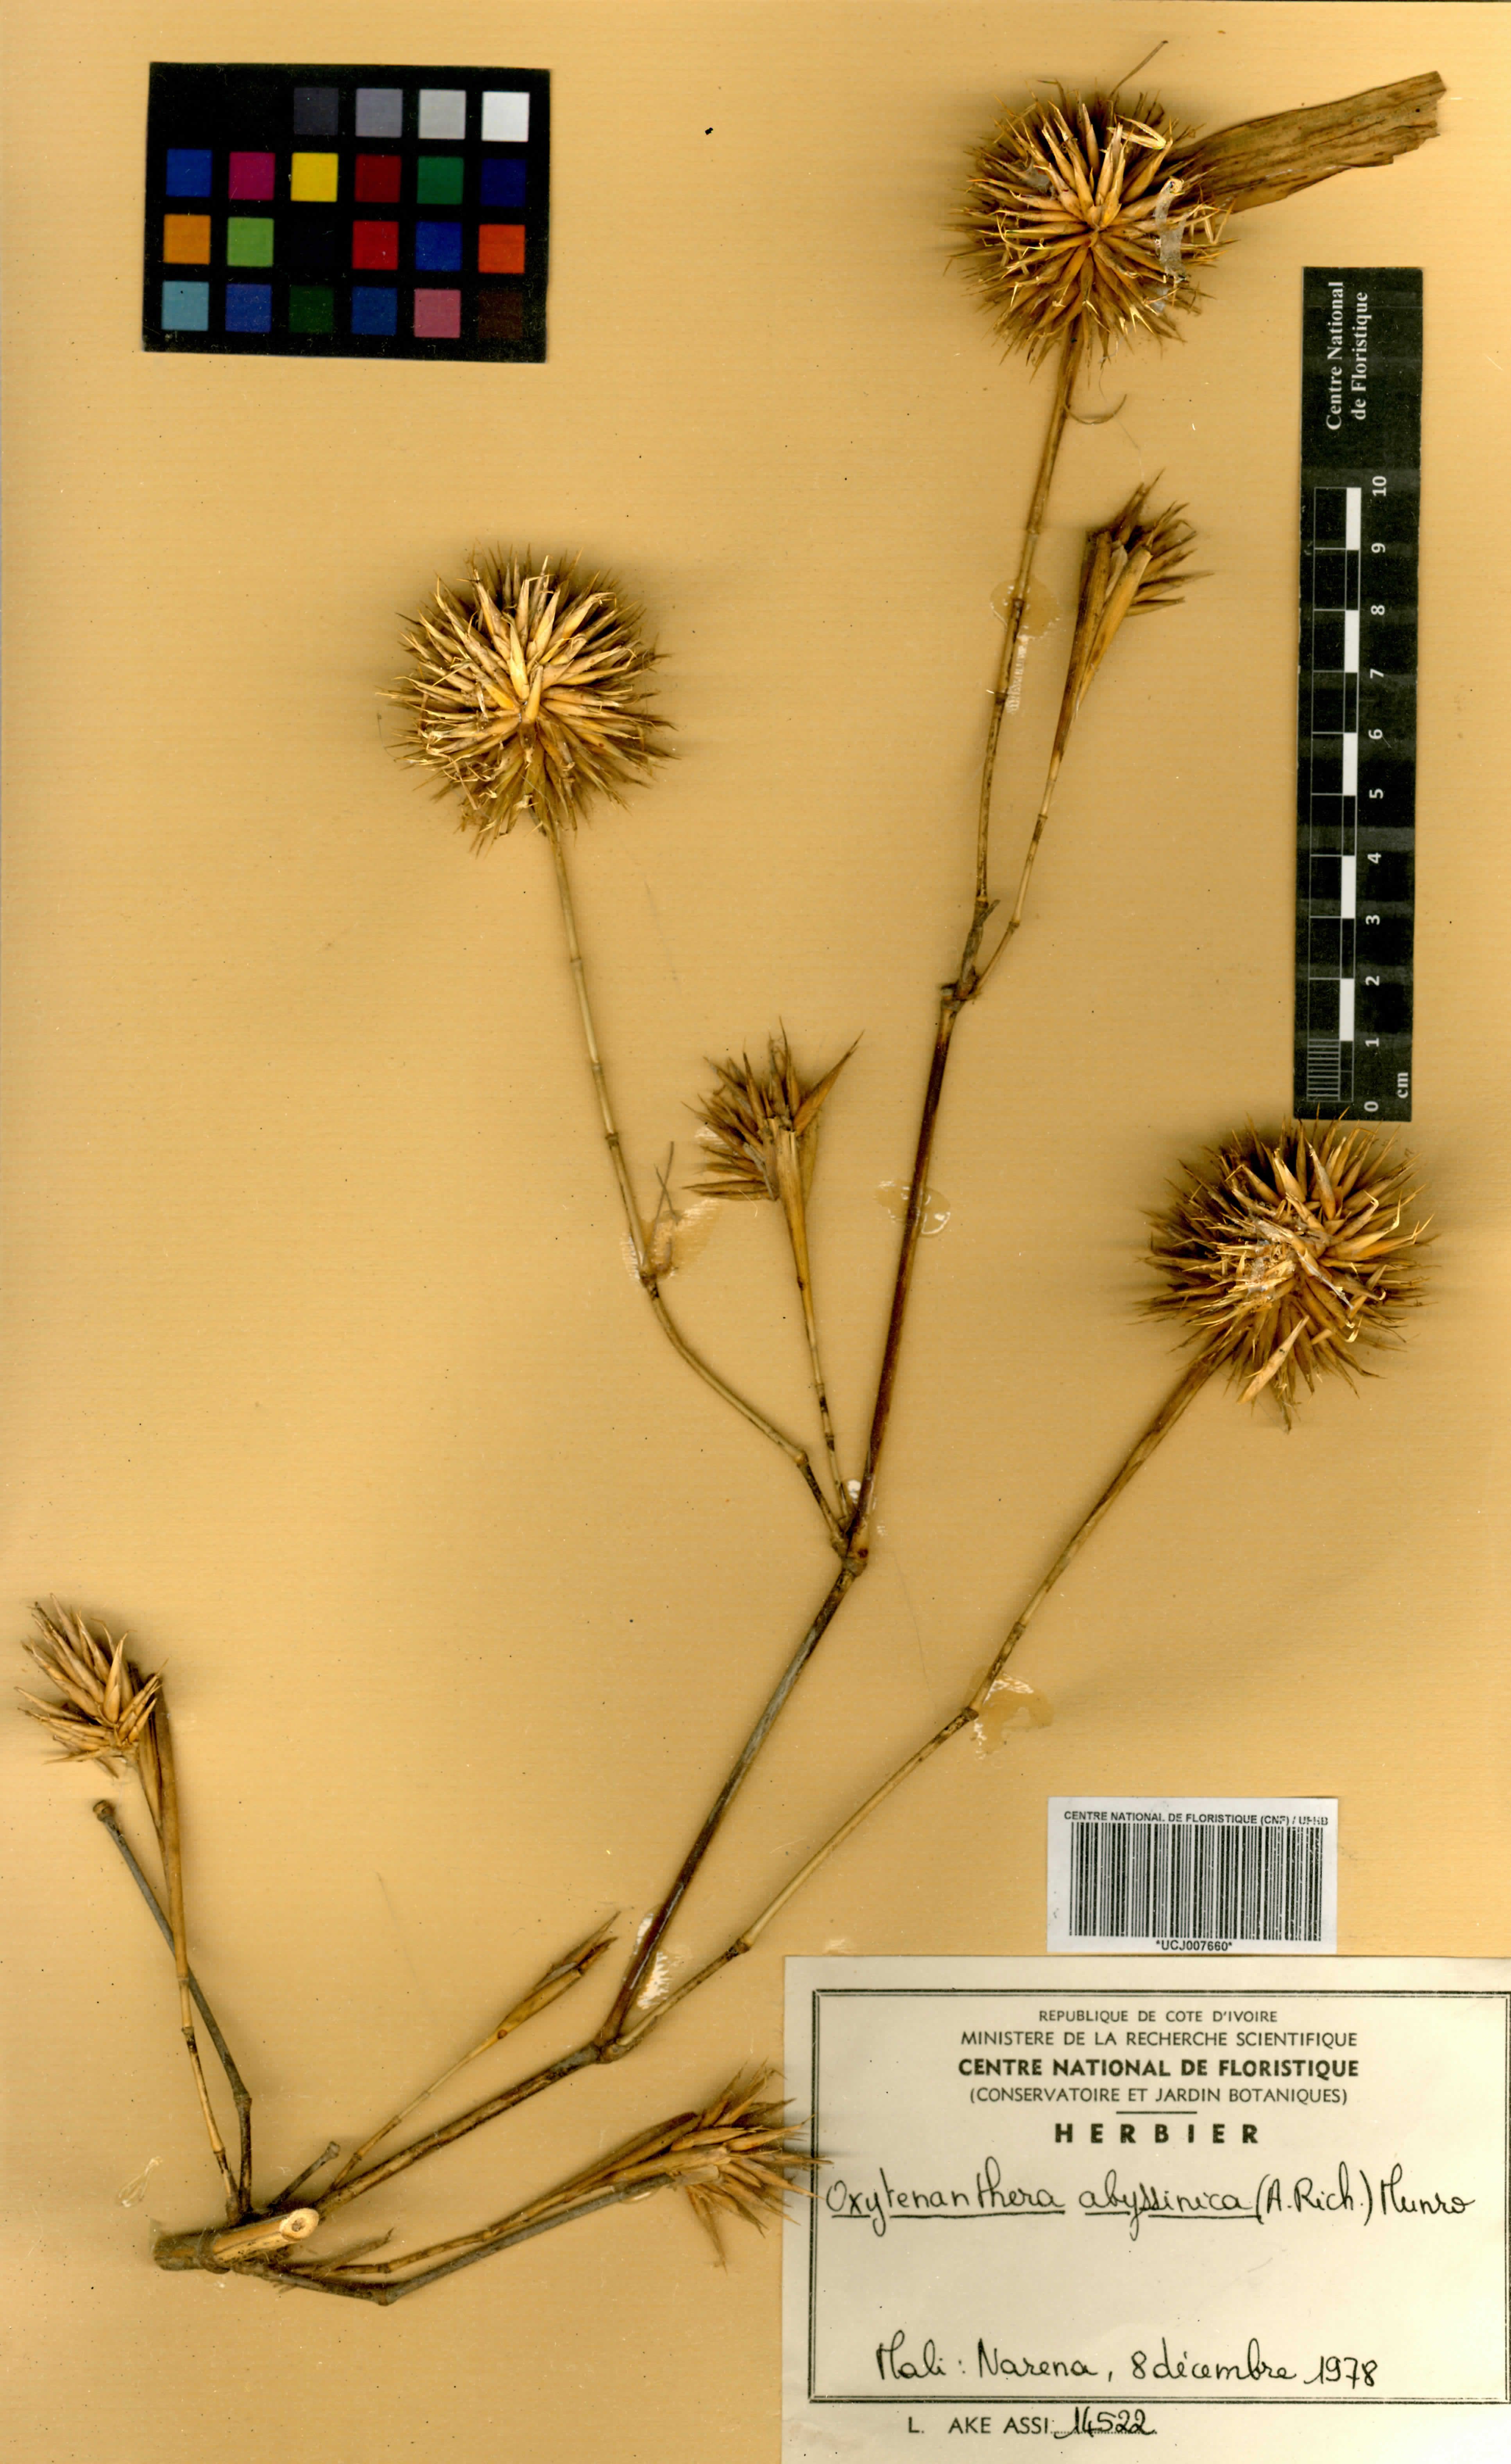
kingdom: Plantae
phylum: Tracheophyta
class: Liliopsida
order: Poales
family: Poaceae
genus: Oxytenanthera
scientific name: Oxytenanthera abyssinica
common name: Wine bamboo
